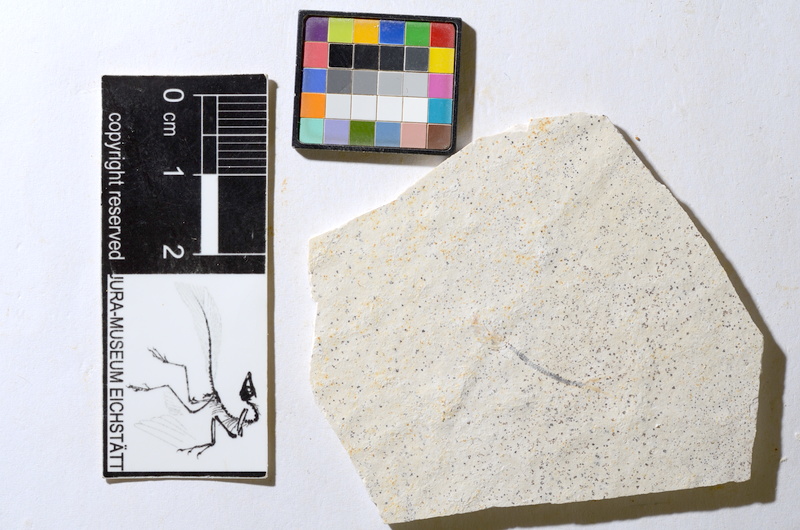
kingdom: Animalia
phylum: Chordata
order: Salmoniformes
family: Orthogonikleithridae
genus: Orthogonikleithrus
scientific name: Orthogonikleithrus hoelli
